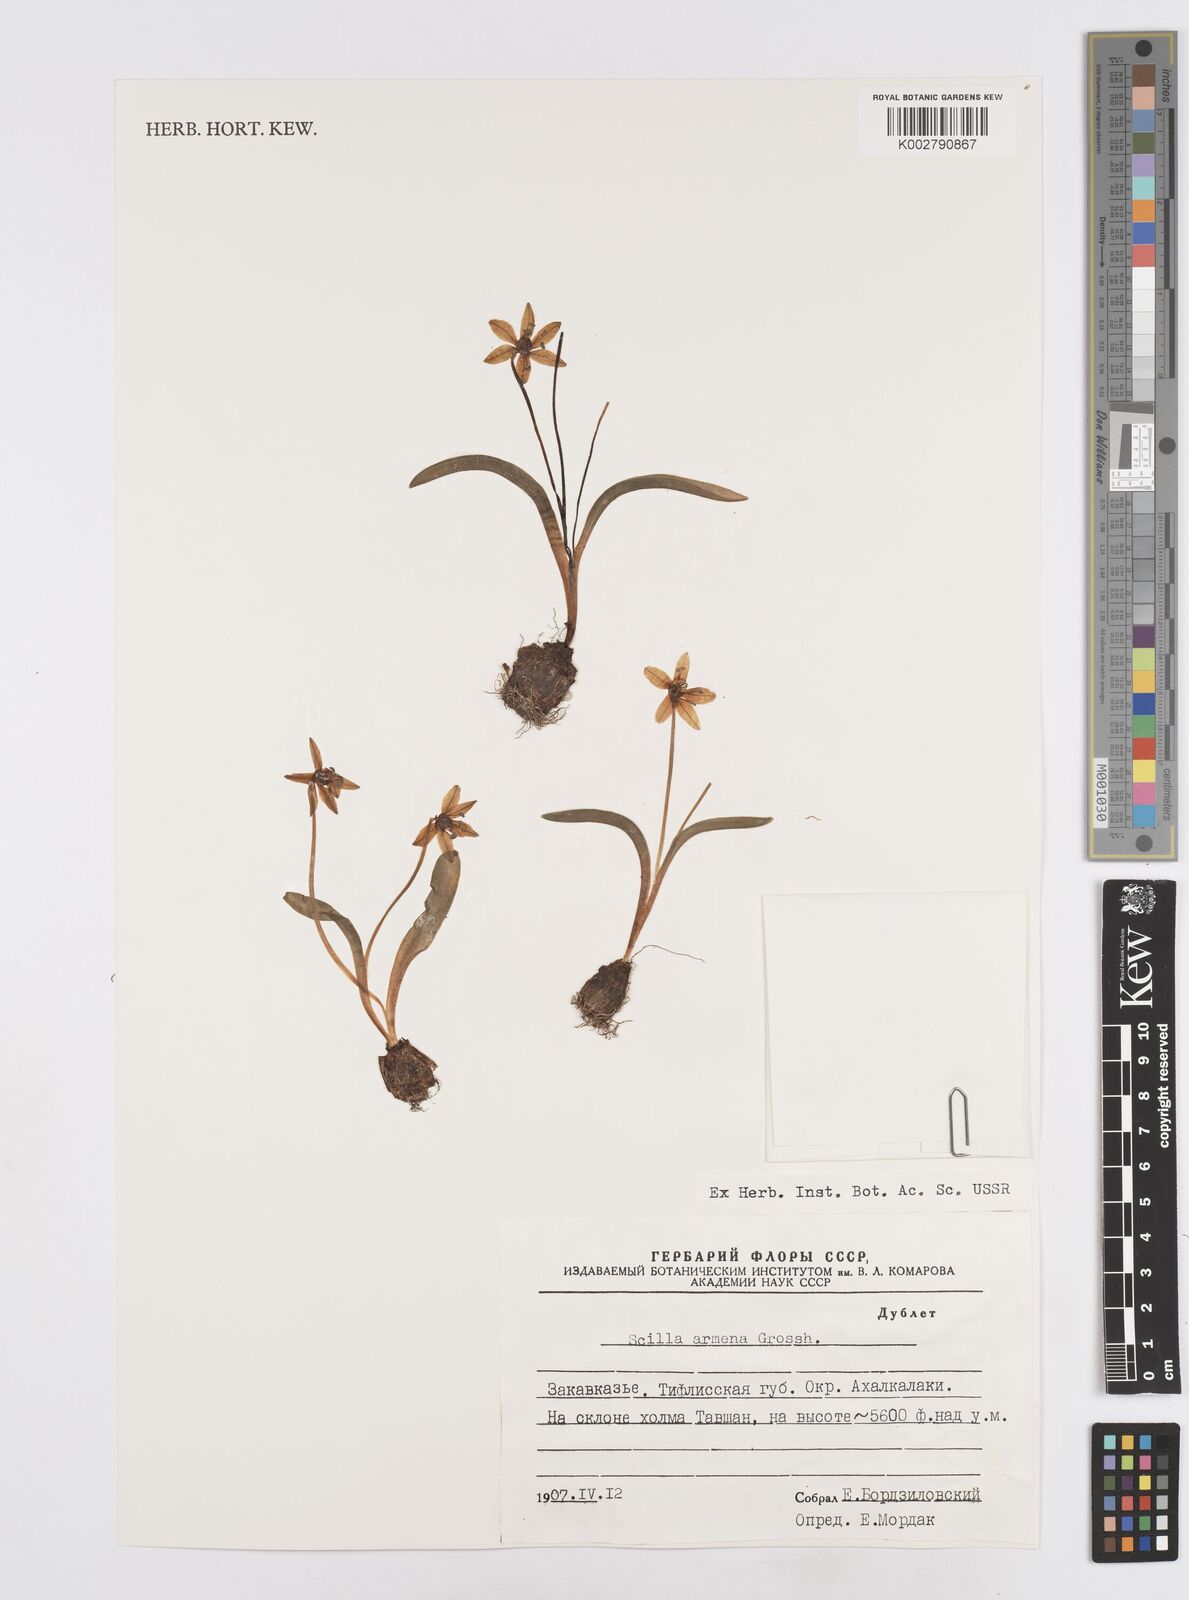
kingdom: Plantae
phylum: Tracheophyta
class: Liliopsida
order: Asparagales
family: Asparagaceae
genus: Scilla
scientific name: Scilla siberica
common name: Siberian squill
